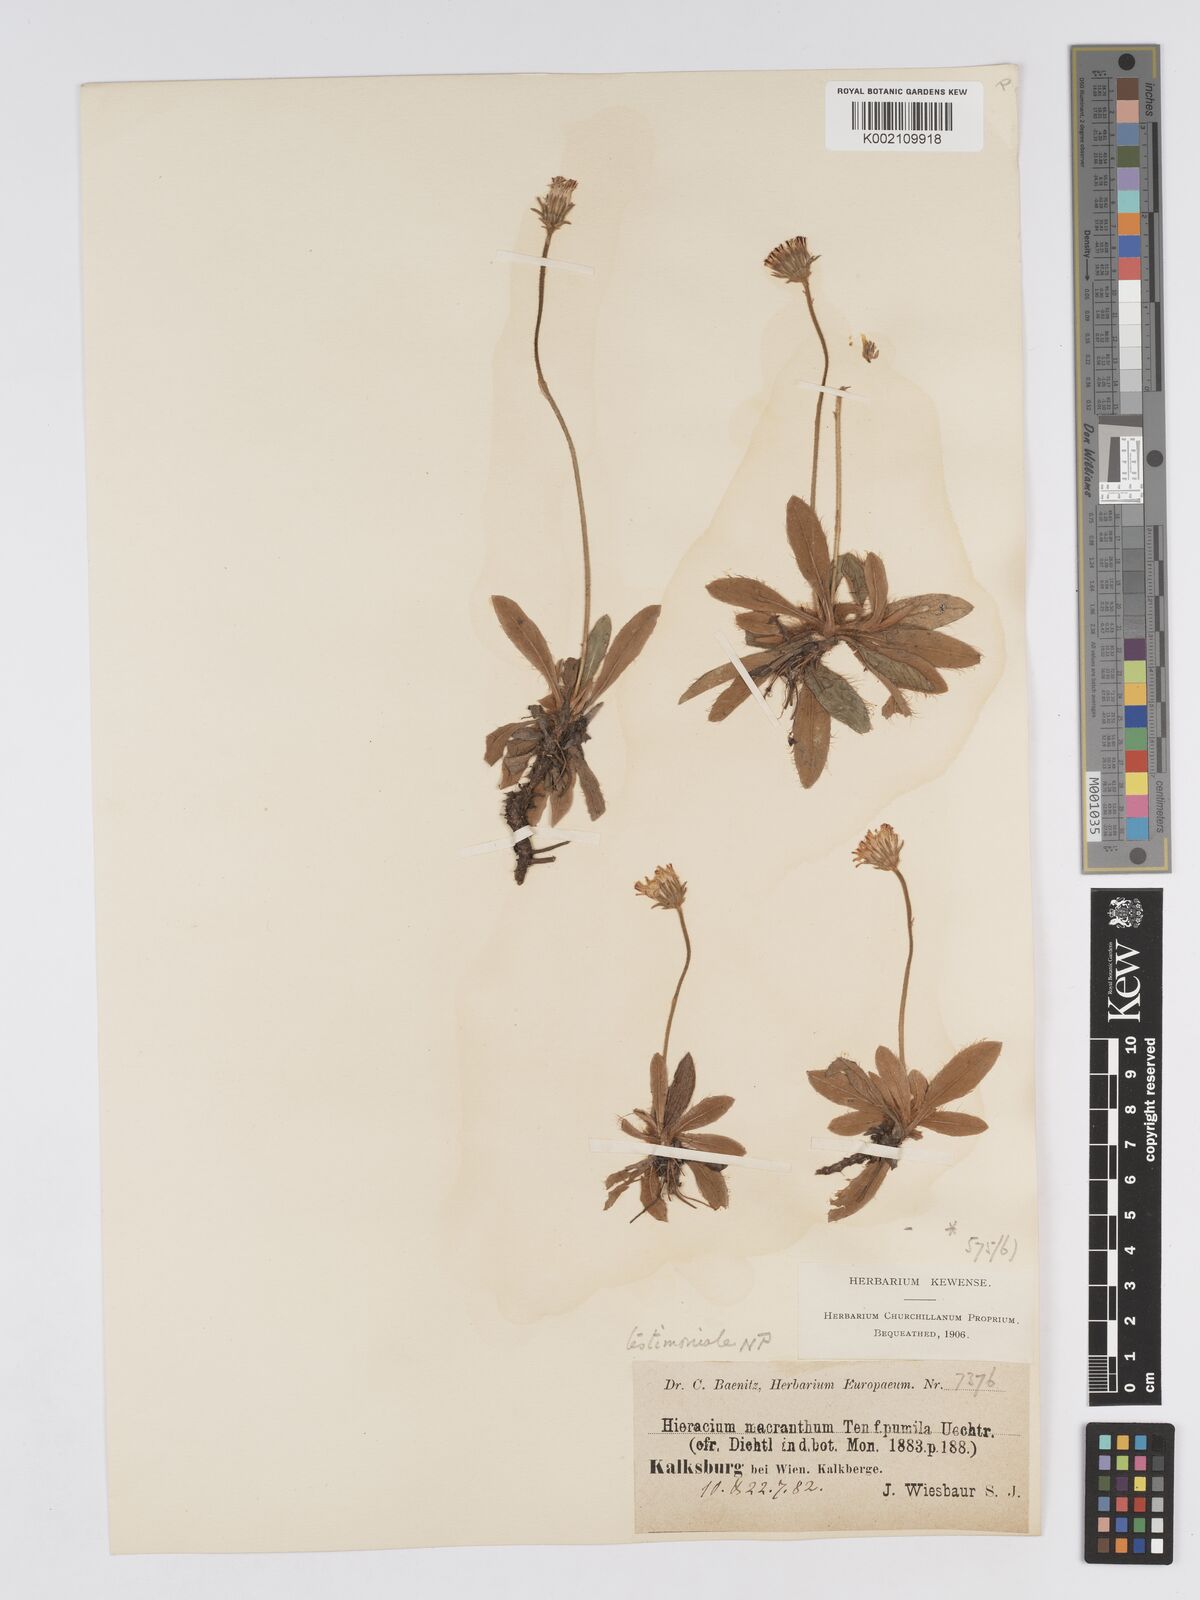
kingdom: Plantae
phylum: Tracheophyta
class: Magnoliopsida
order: Asterales
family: Asteraceae
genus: Pilosella
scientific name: Pilosella leucopsilon
